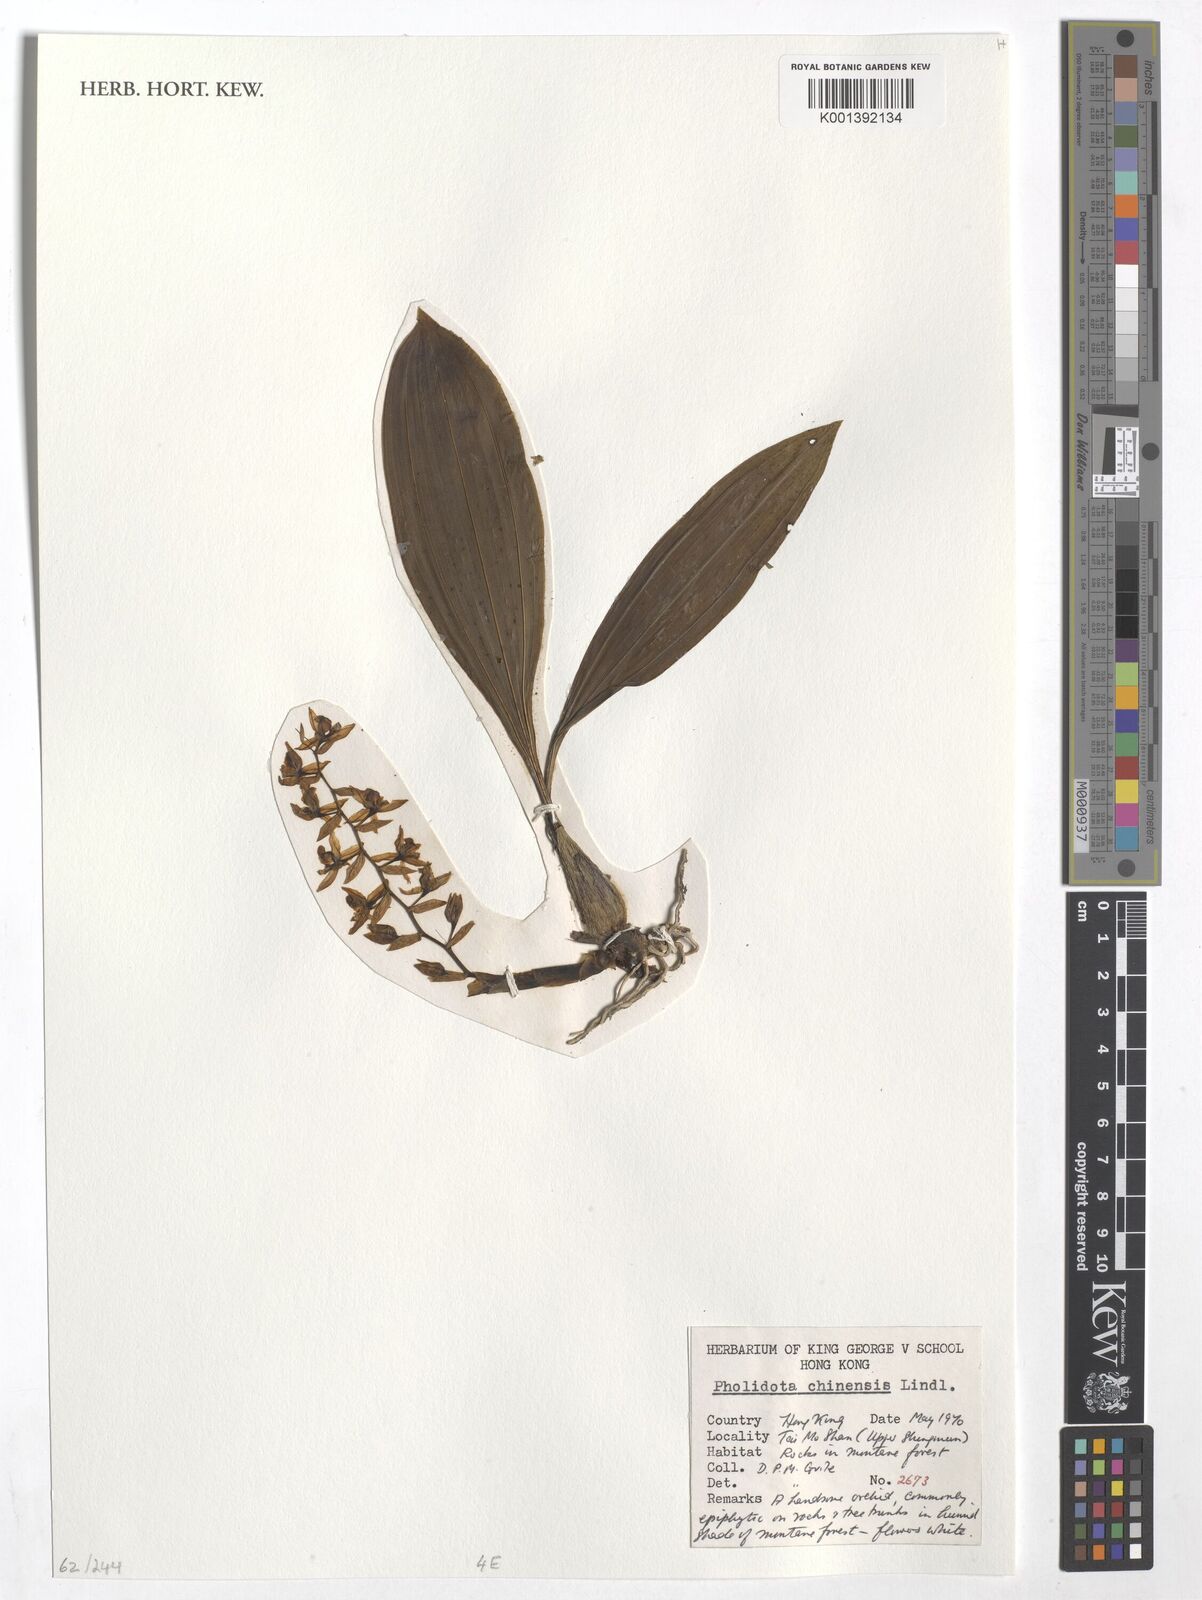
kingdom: Plantae
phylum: Tracheophyta
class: Liliopsida
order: Asparagales
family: Orchidaceae
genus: Coelogyne
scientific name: Coelogyne chinensis
